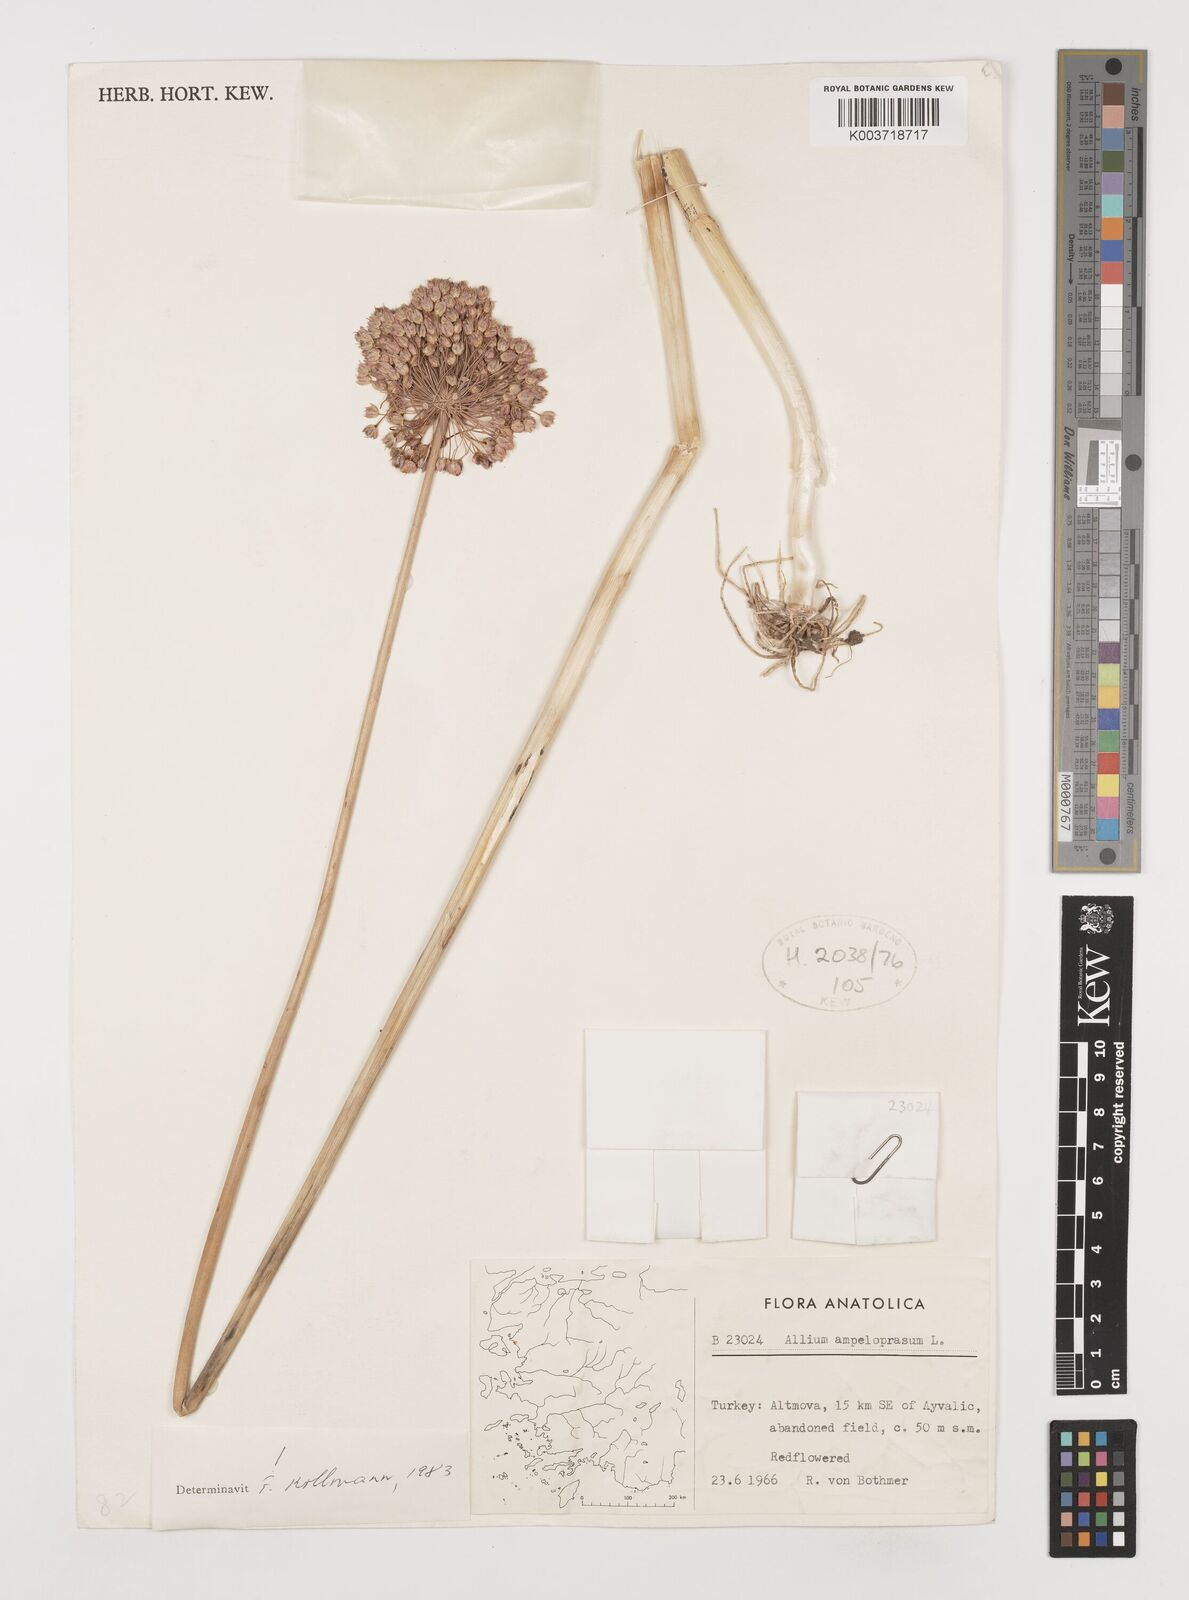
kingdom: Plantae
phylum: Tracheophyta
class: Liliopsida
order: Asparagales
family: Amaryllidaceae
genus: Allium
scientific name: Allium ampeloprasum
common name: Wild leek
